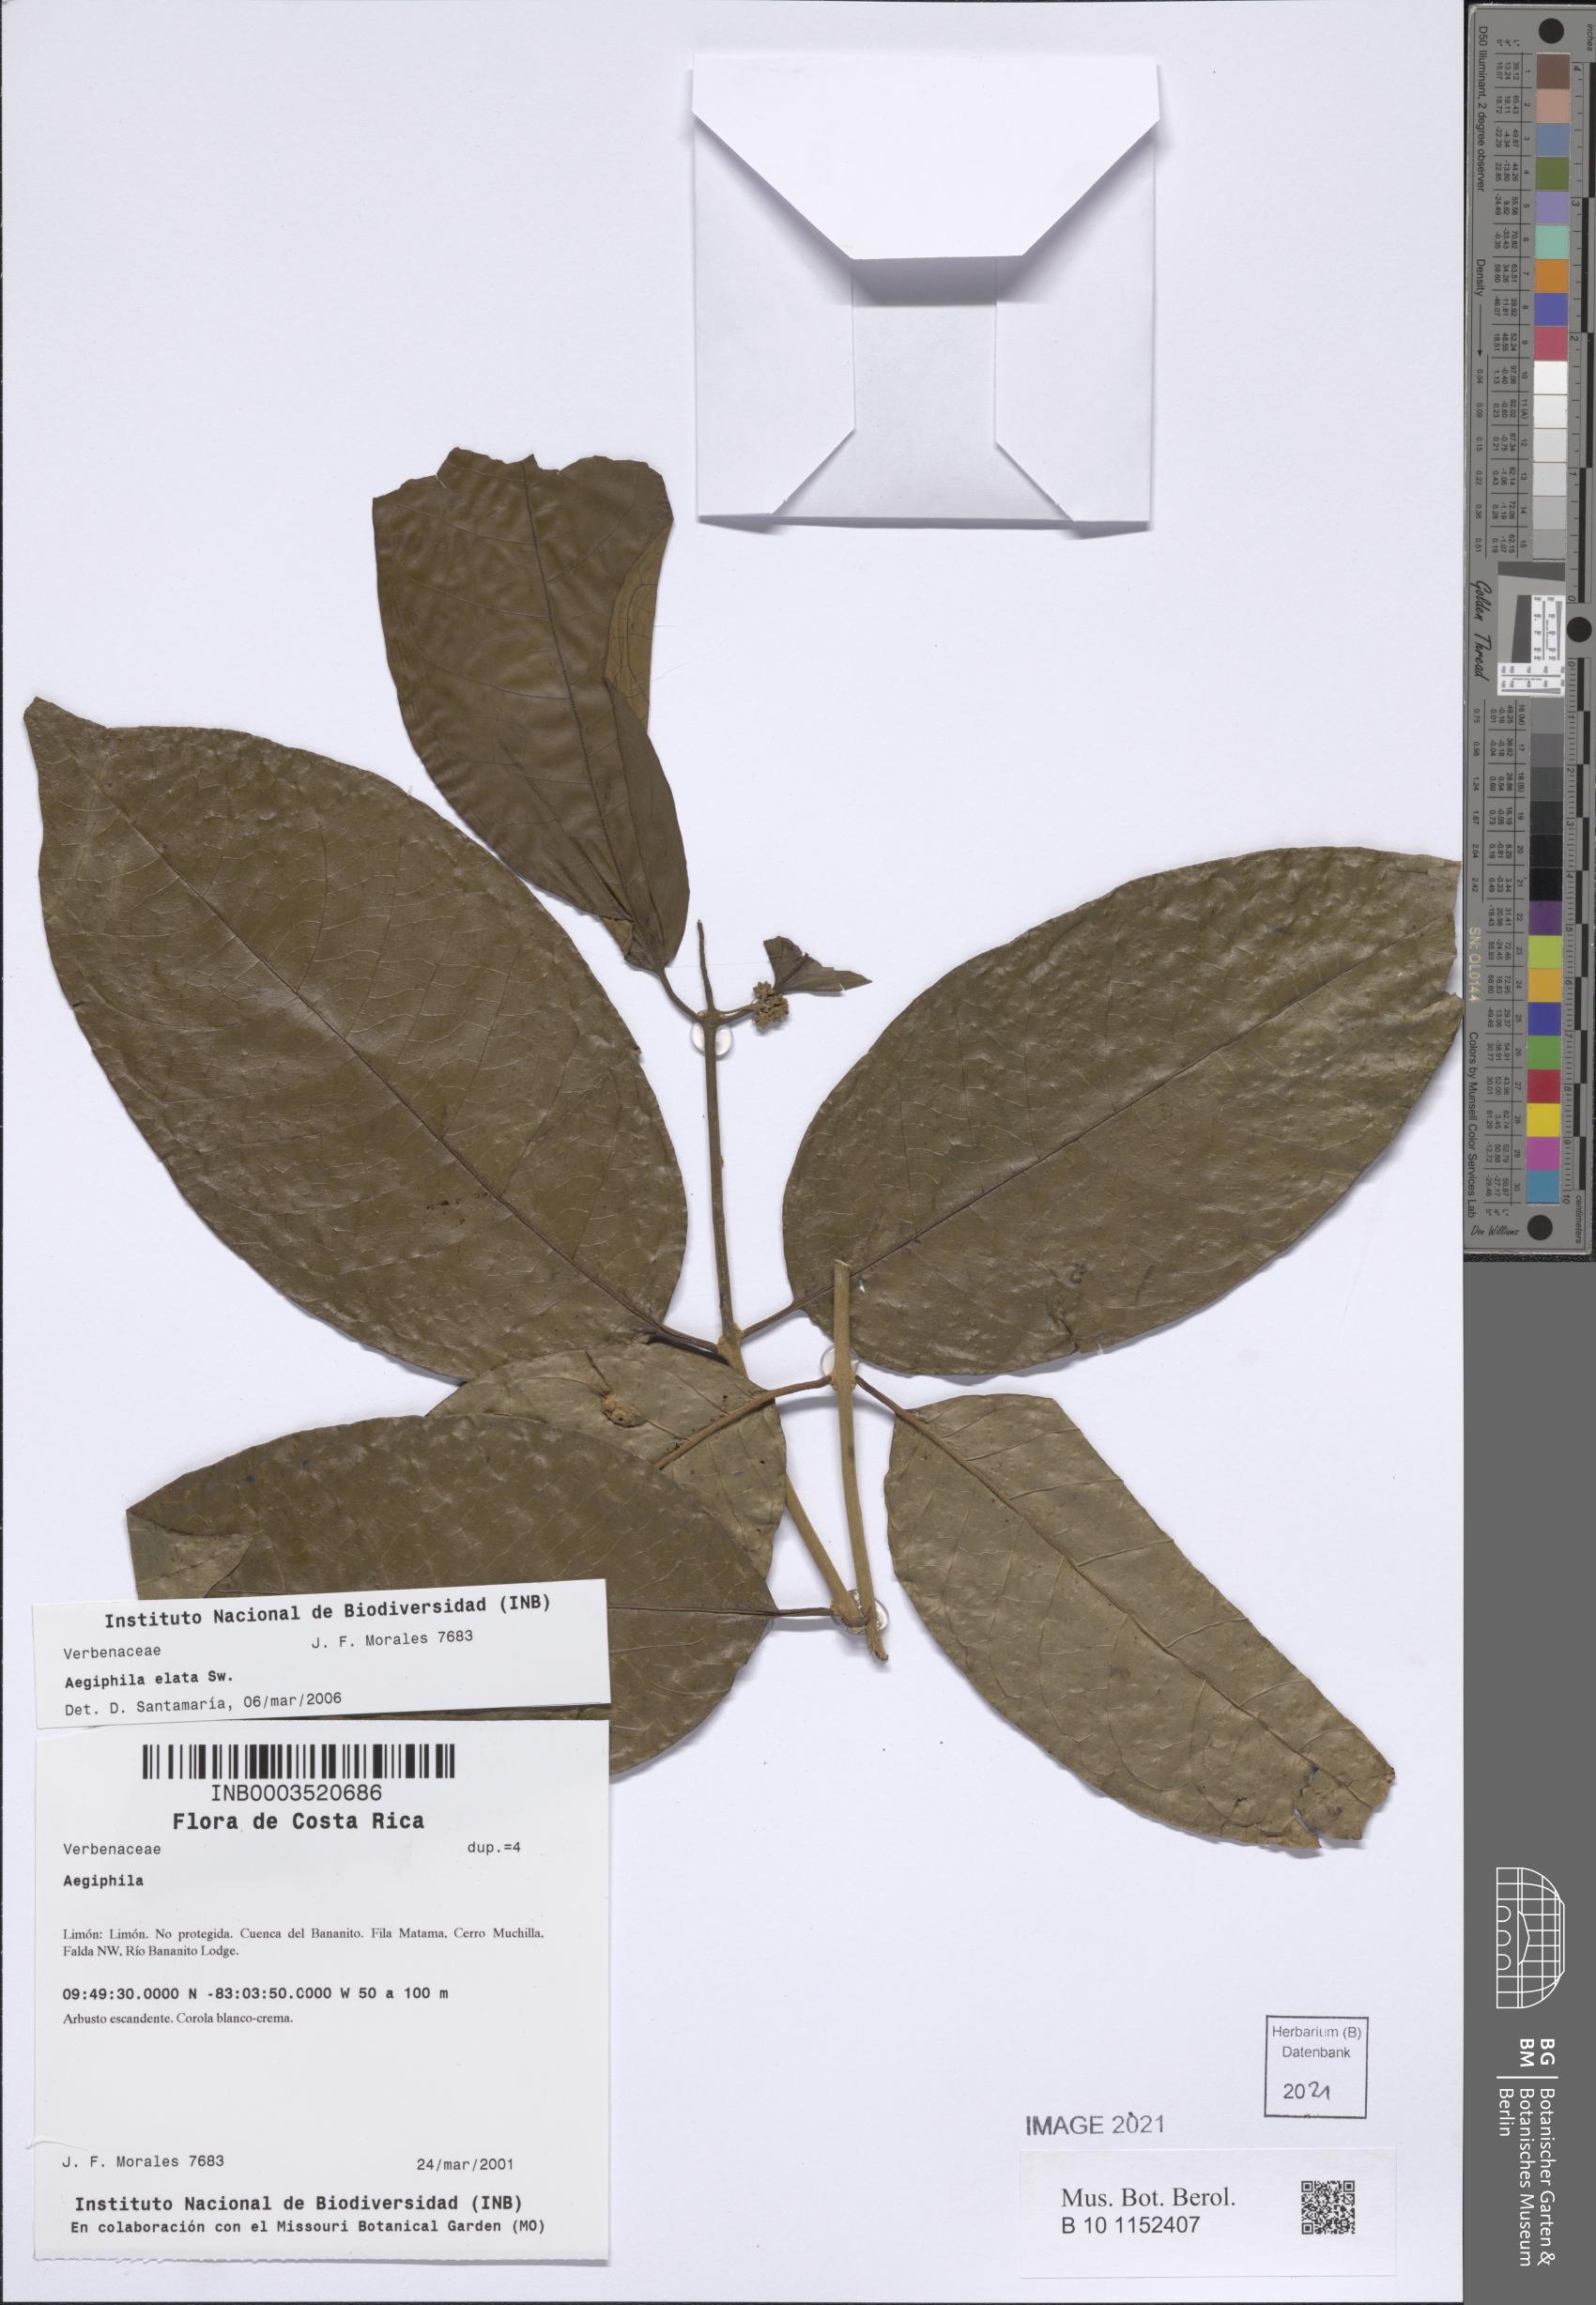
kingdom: Plantae
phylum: Tracheophyta
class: Magnoliopsida
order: Lamiales
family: Lamiaceae
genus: Aegiphila
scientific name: Aegiphila elata
